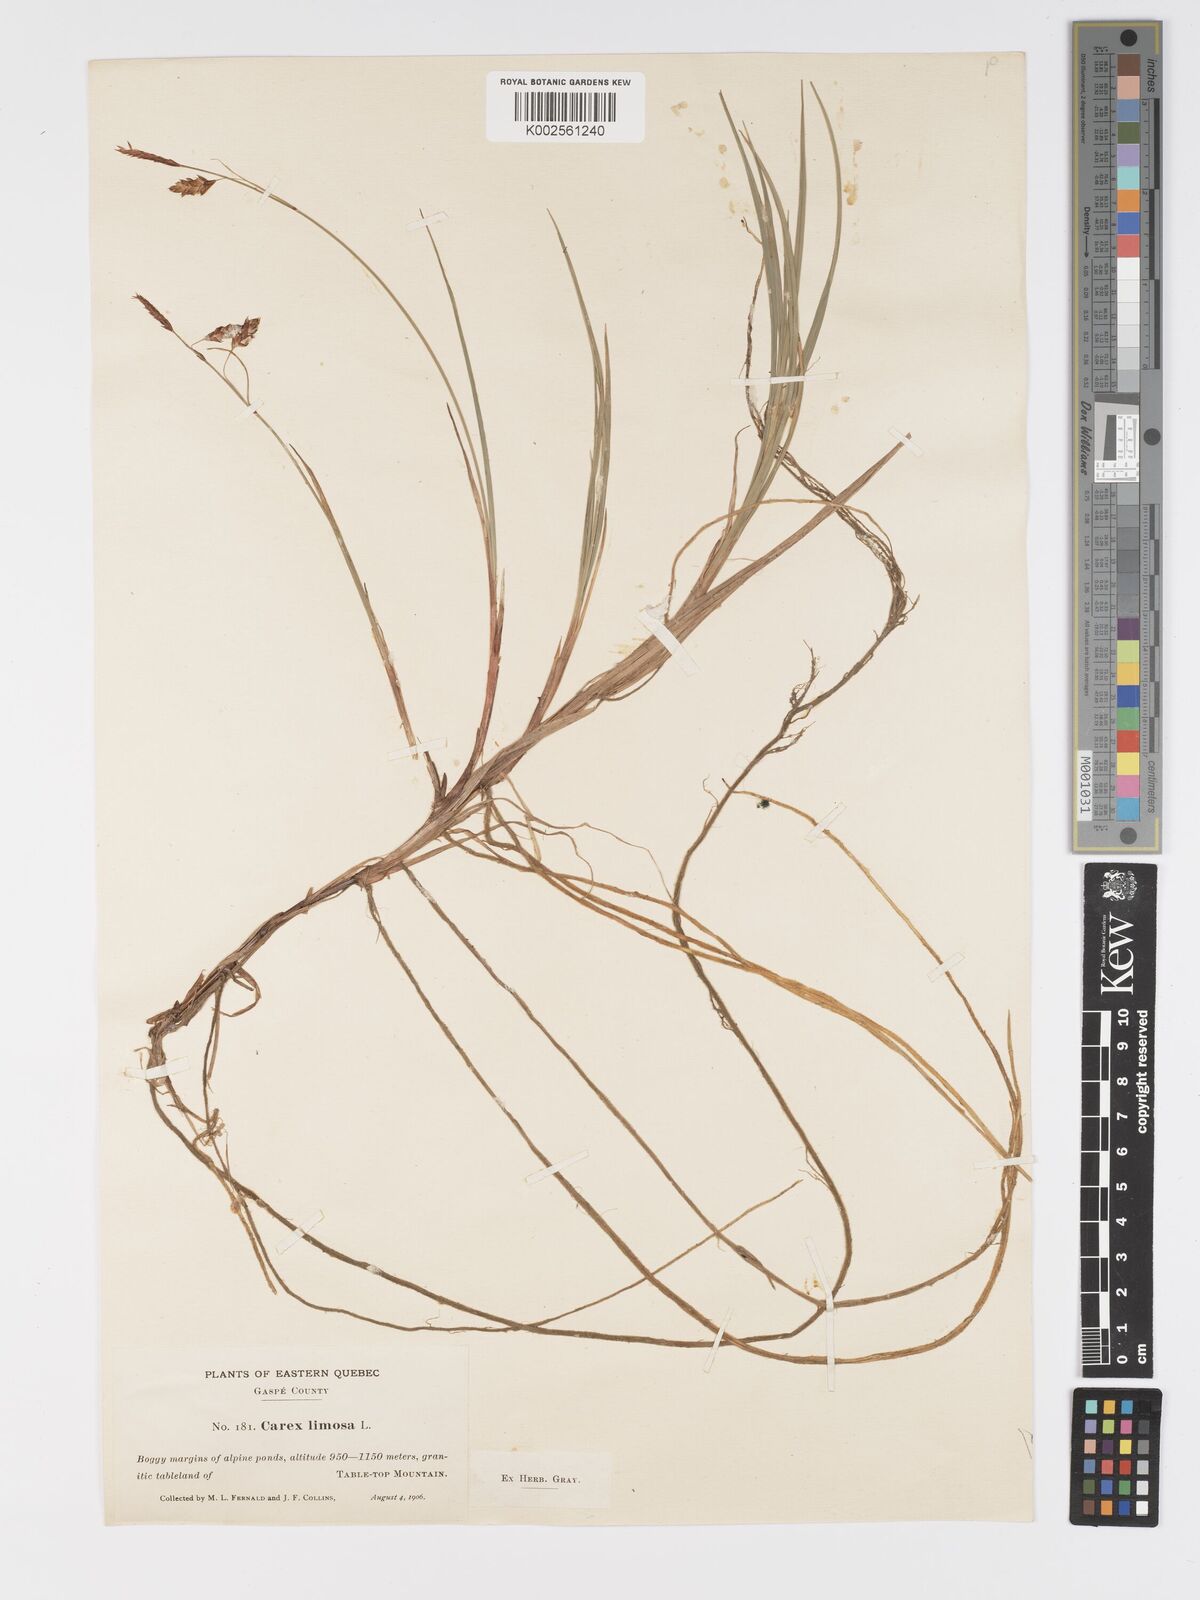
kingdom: Plantae
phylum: Tracheophyta
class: Liliopsida
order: Poales
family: Cyperaceae
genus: Carex
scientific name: Carex limosa
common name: Bog sedge
